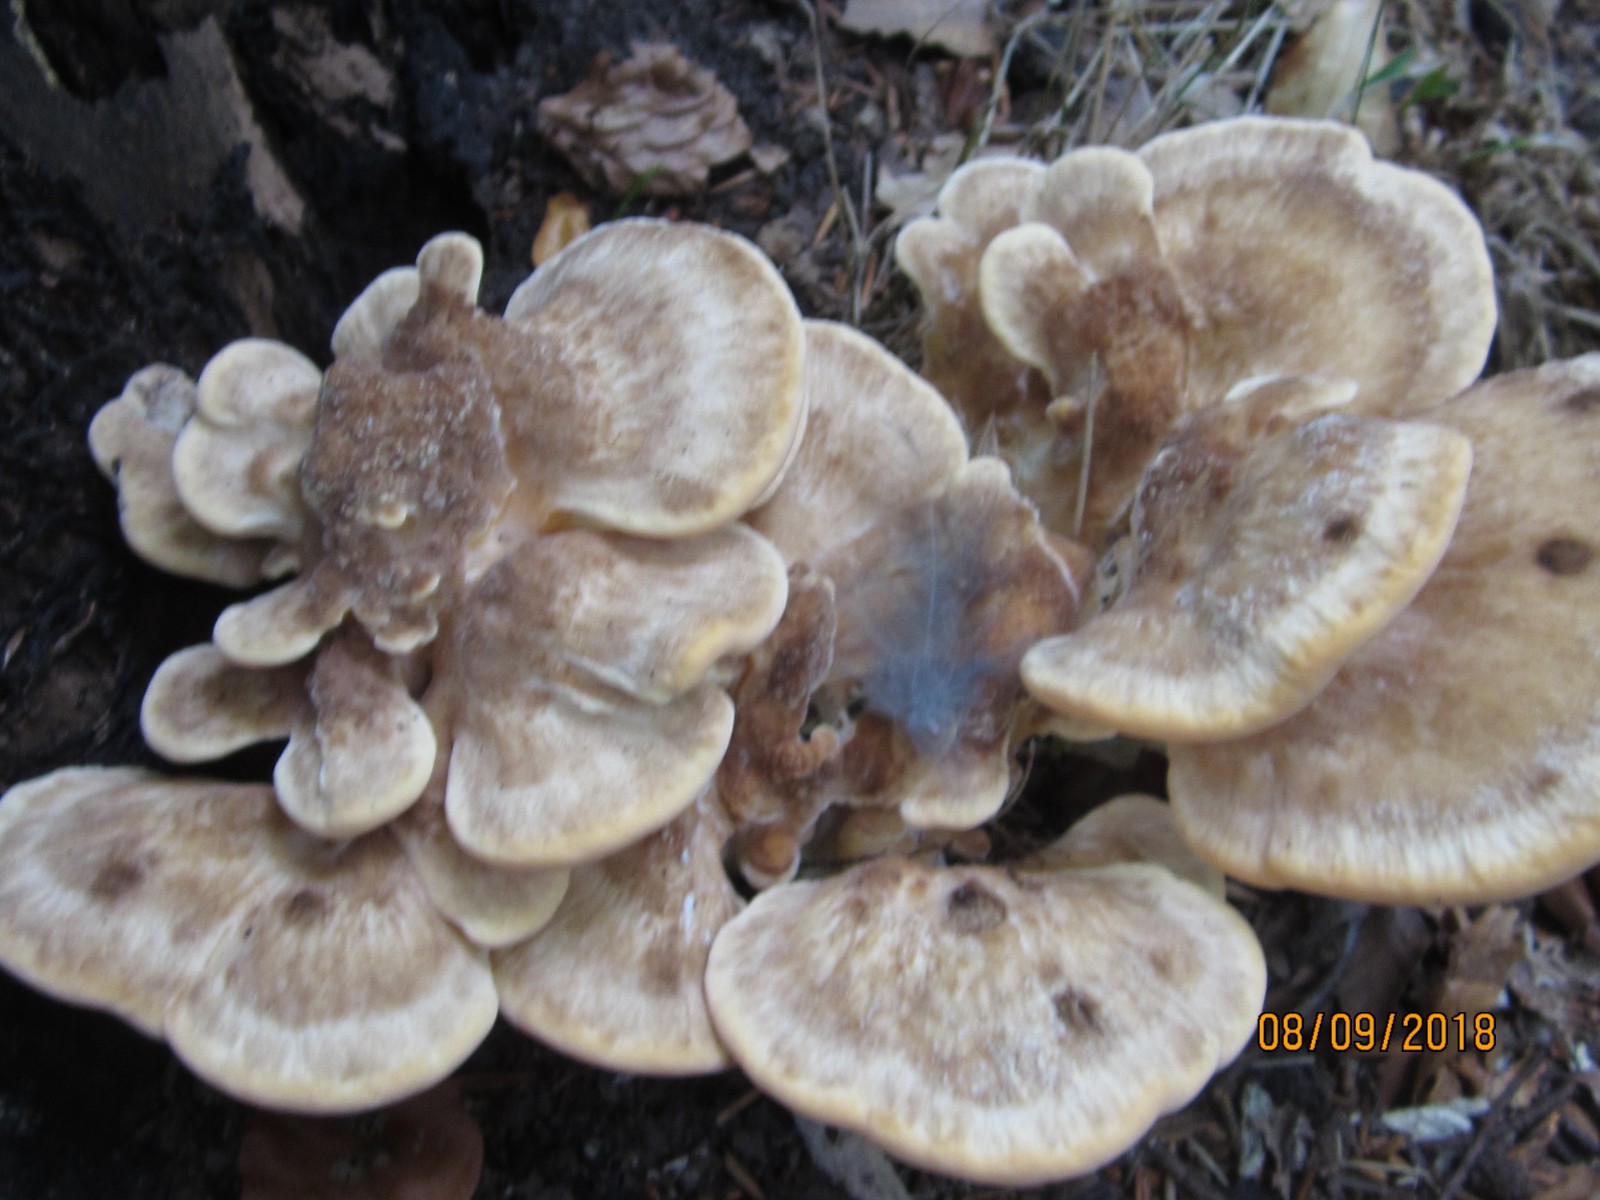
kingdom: Fungi
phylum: Basidiomycota
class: Agaricomycetes
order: Polyporales
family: Meripilaceae
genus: Meripilus
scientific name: Meripilus giganteus
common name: kæmpeporesvamp
